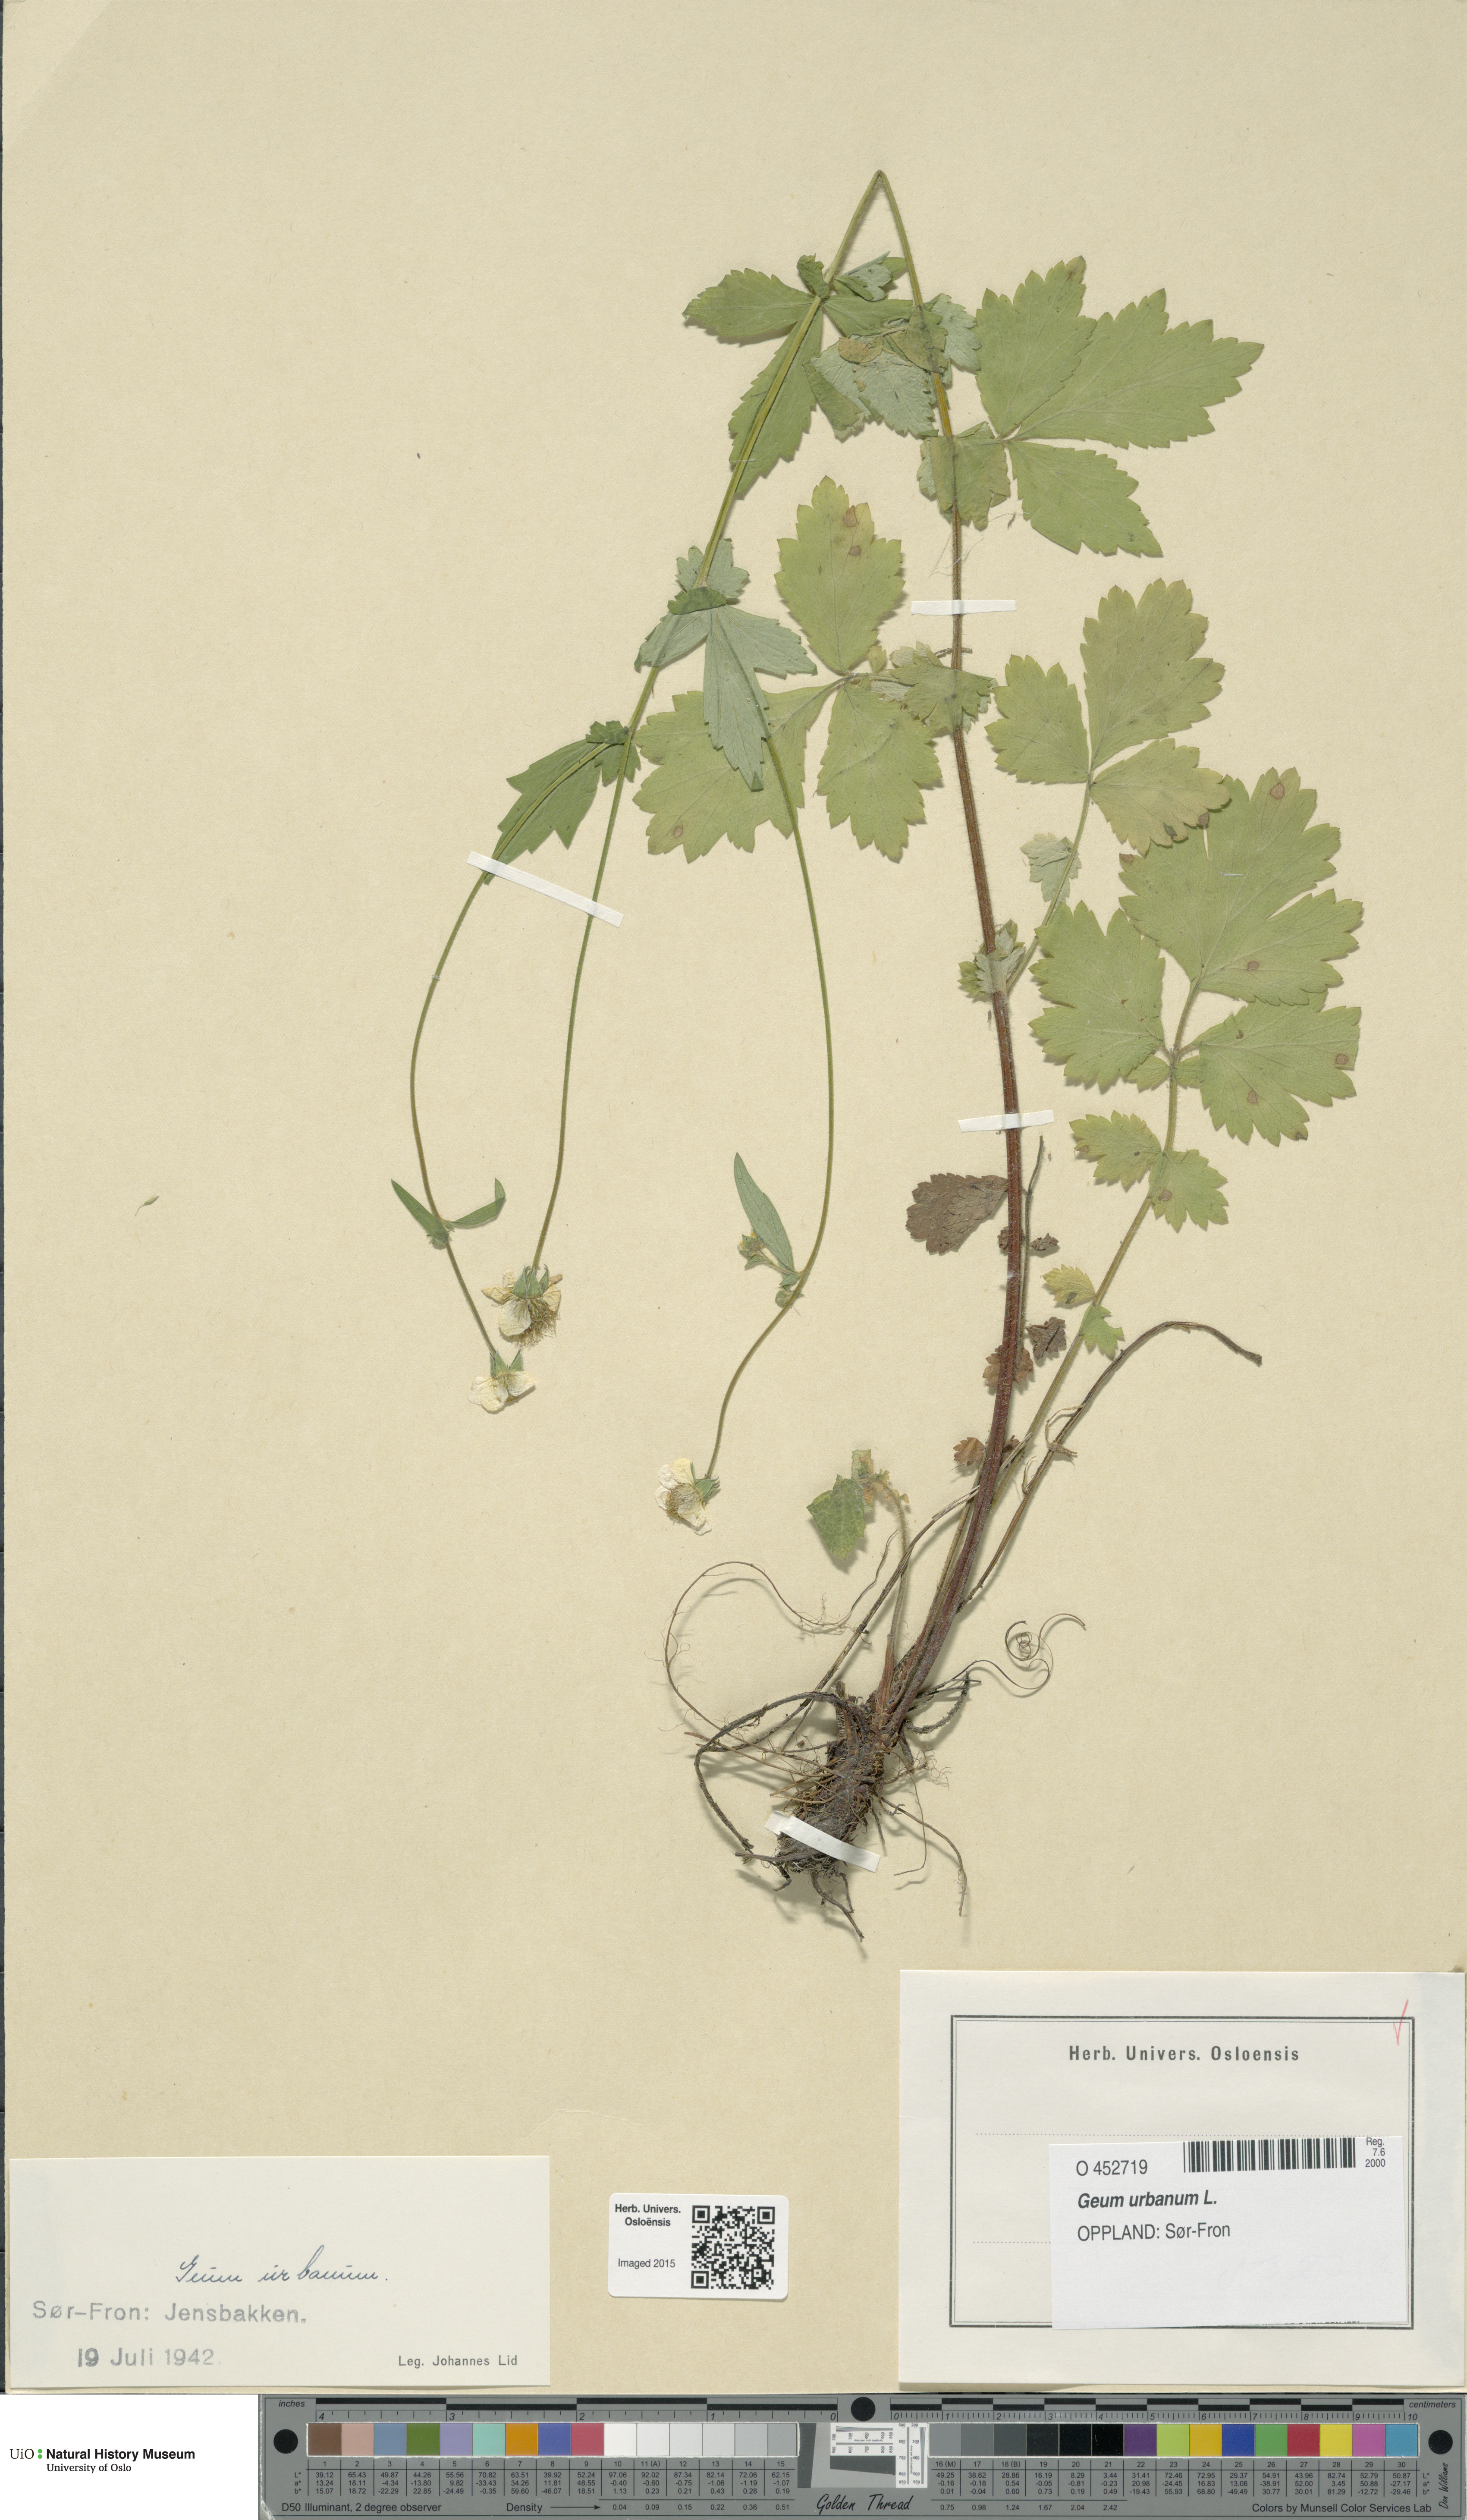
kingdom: Plantae
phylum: Tracheophyta
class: Magnoliopsida
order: Rosales
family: Rosaceae
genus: Geum
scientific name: Geum urbanum
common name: Wood avens
